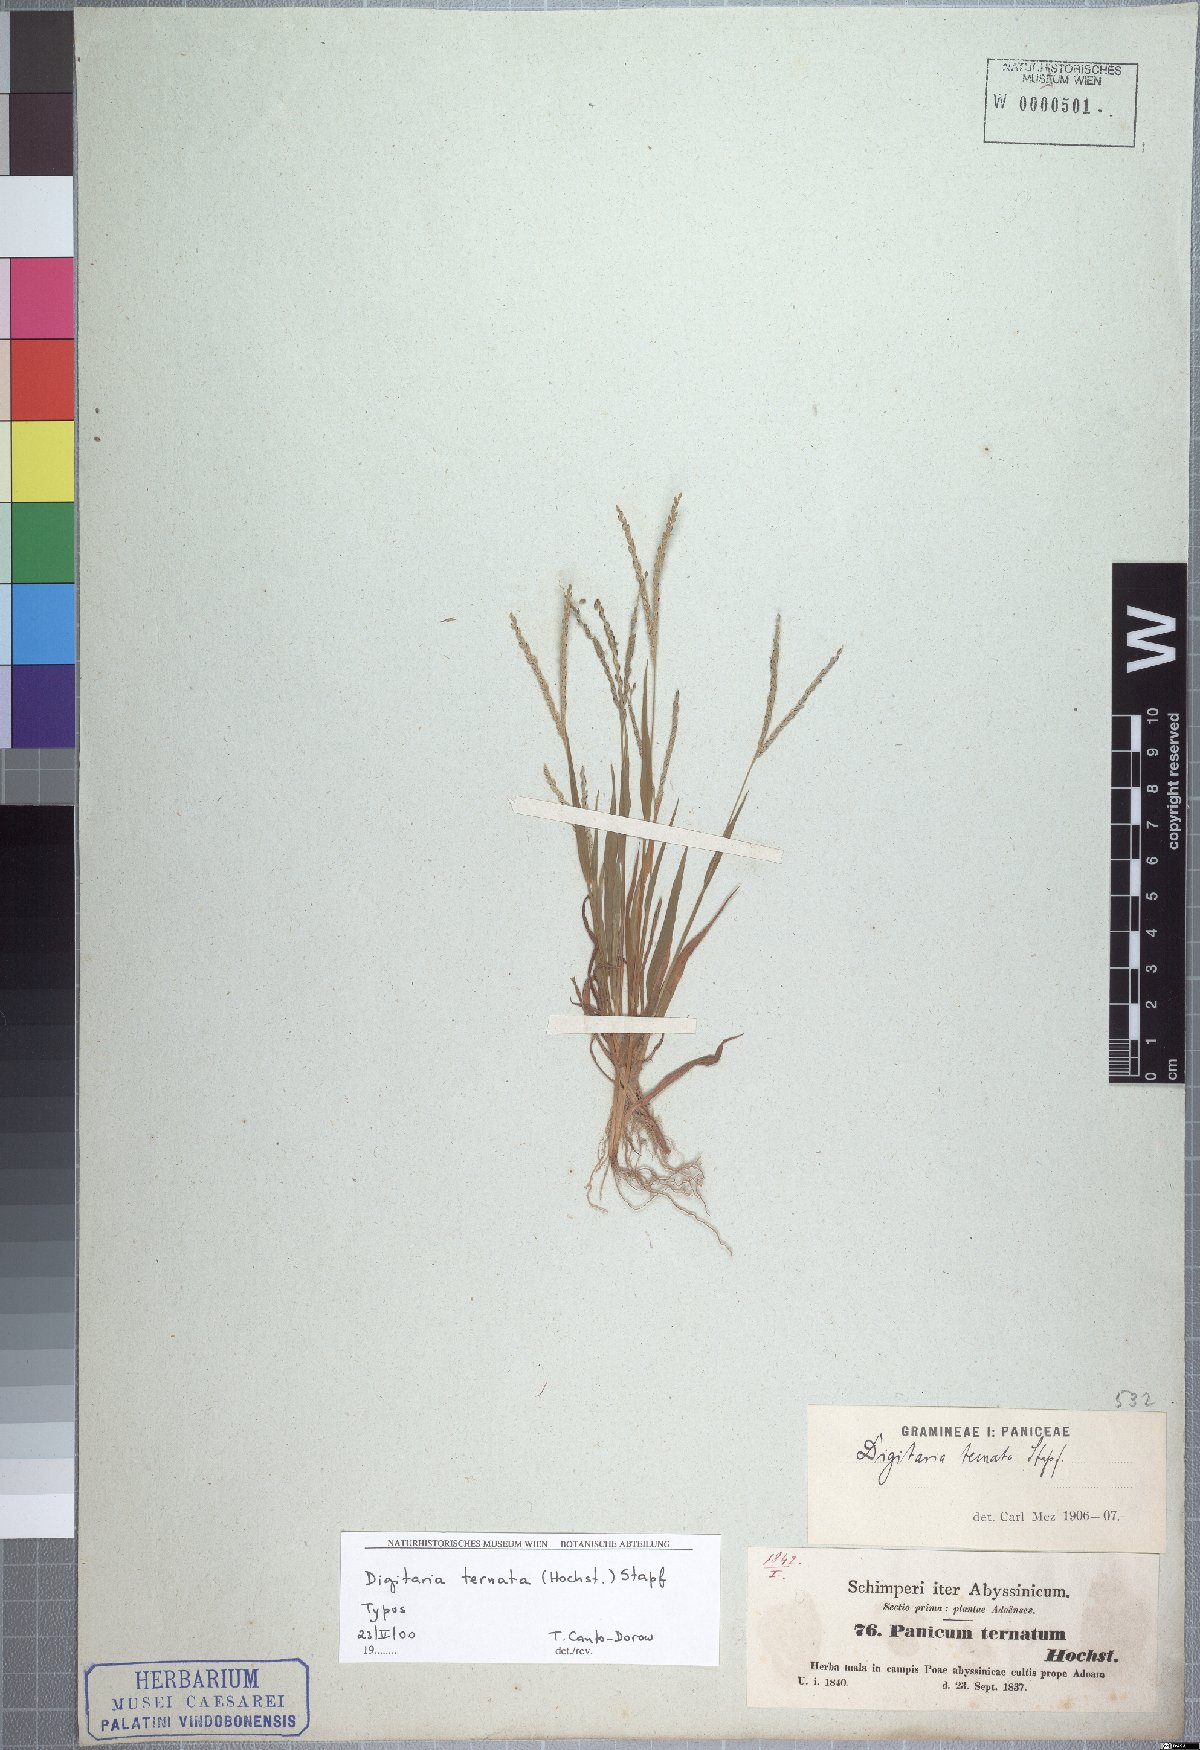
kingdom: Plantae
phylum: Tracheophyta
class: Liliopsida
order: Poales
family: Poaceae
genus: Digitaria
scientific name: Digitaria ternata
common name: Blackseed crabgrass
